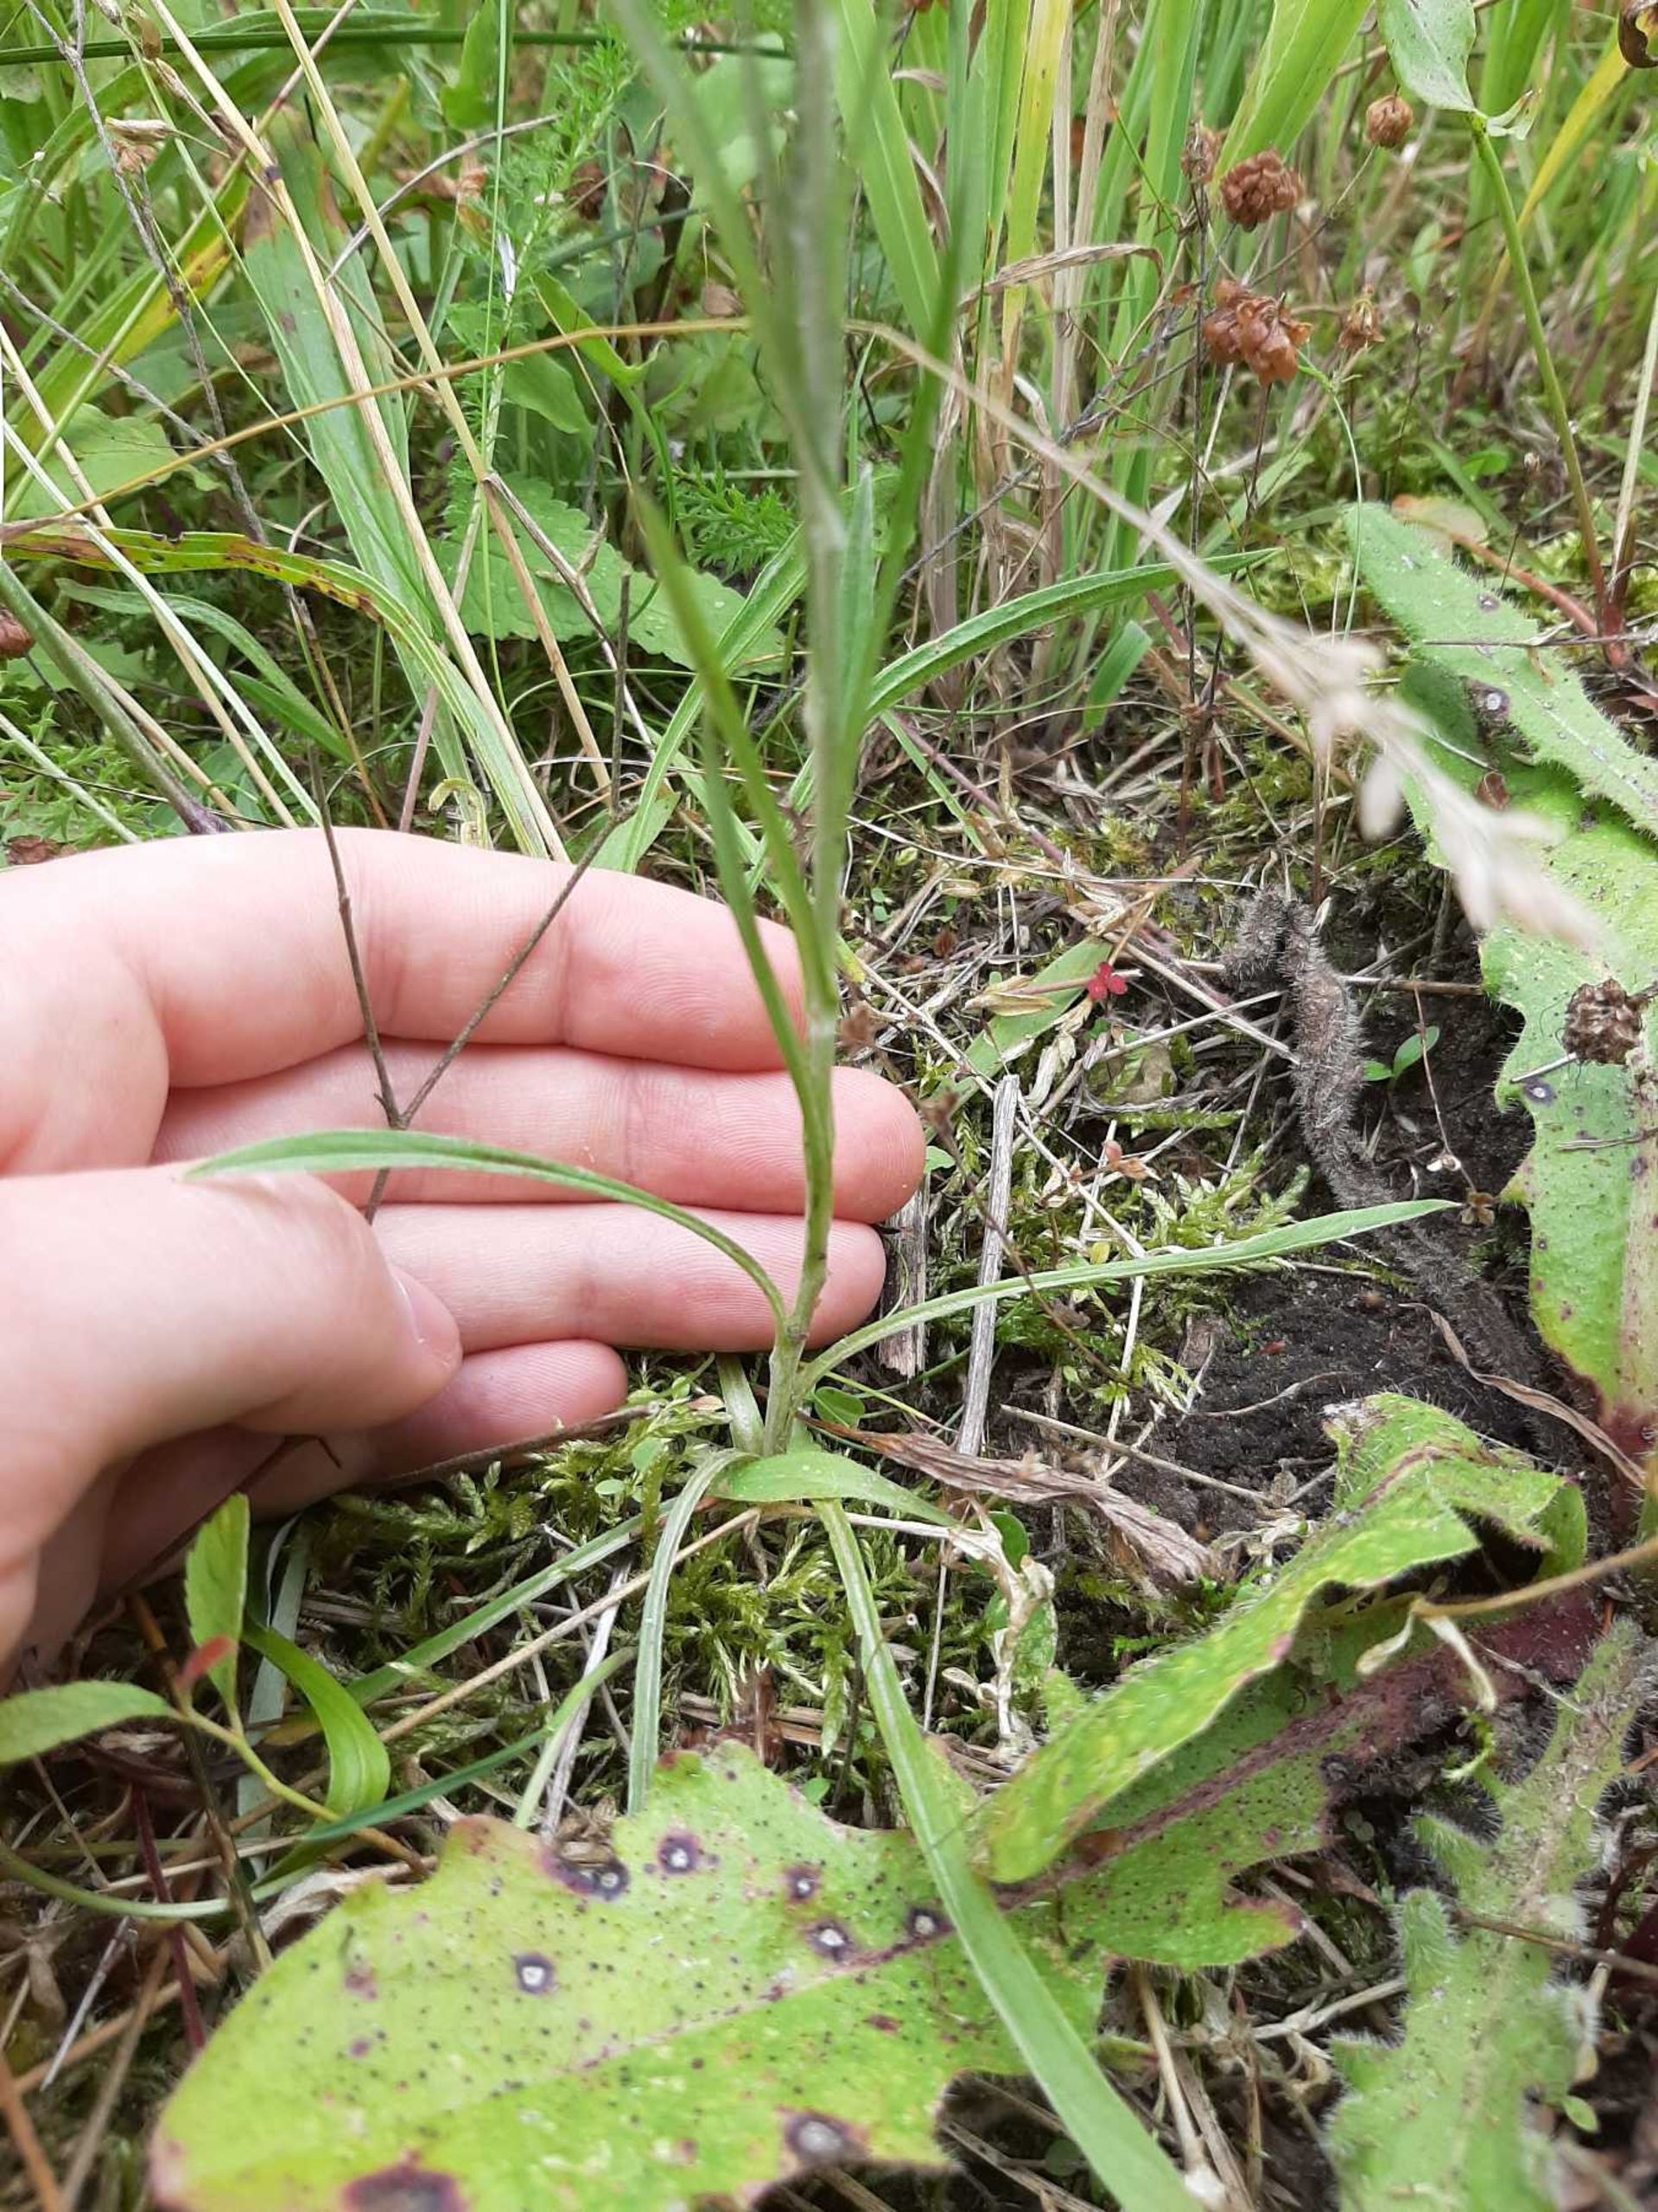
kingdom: Plantae
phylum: Tracheophyta
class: Magnoliopsida
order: Asterales
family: Asteraceae
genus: Omalotheca
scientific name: Omalotheca sylvatica
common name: Rank evighedsblomst
